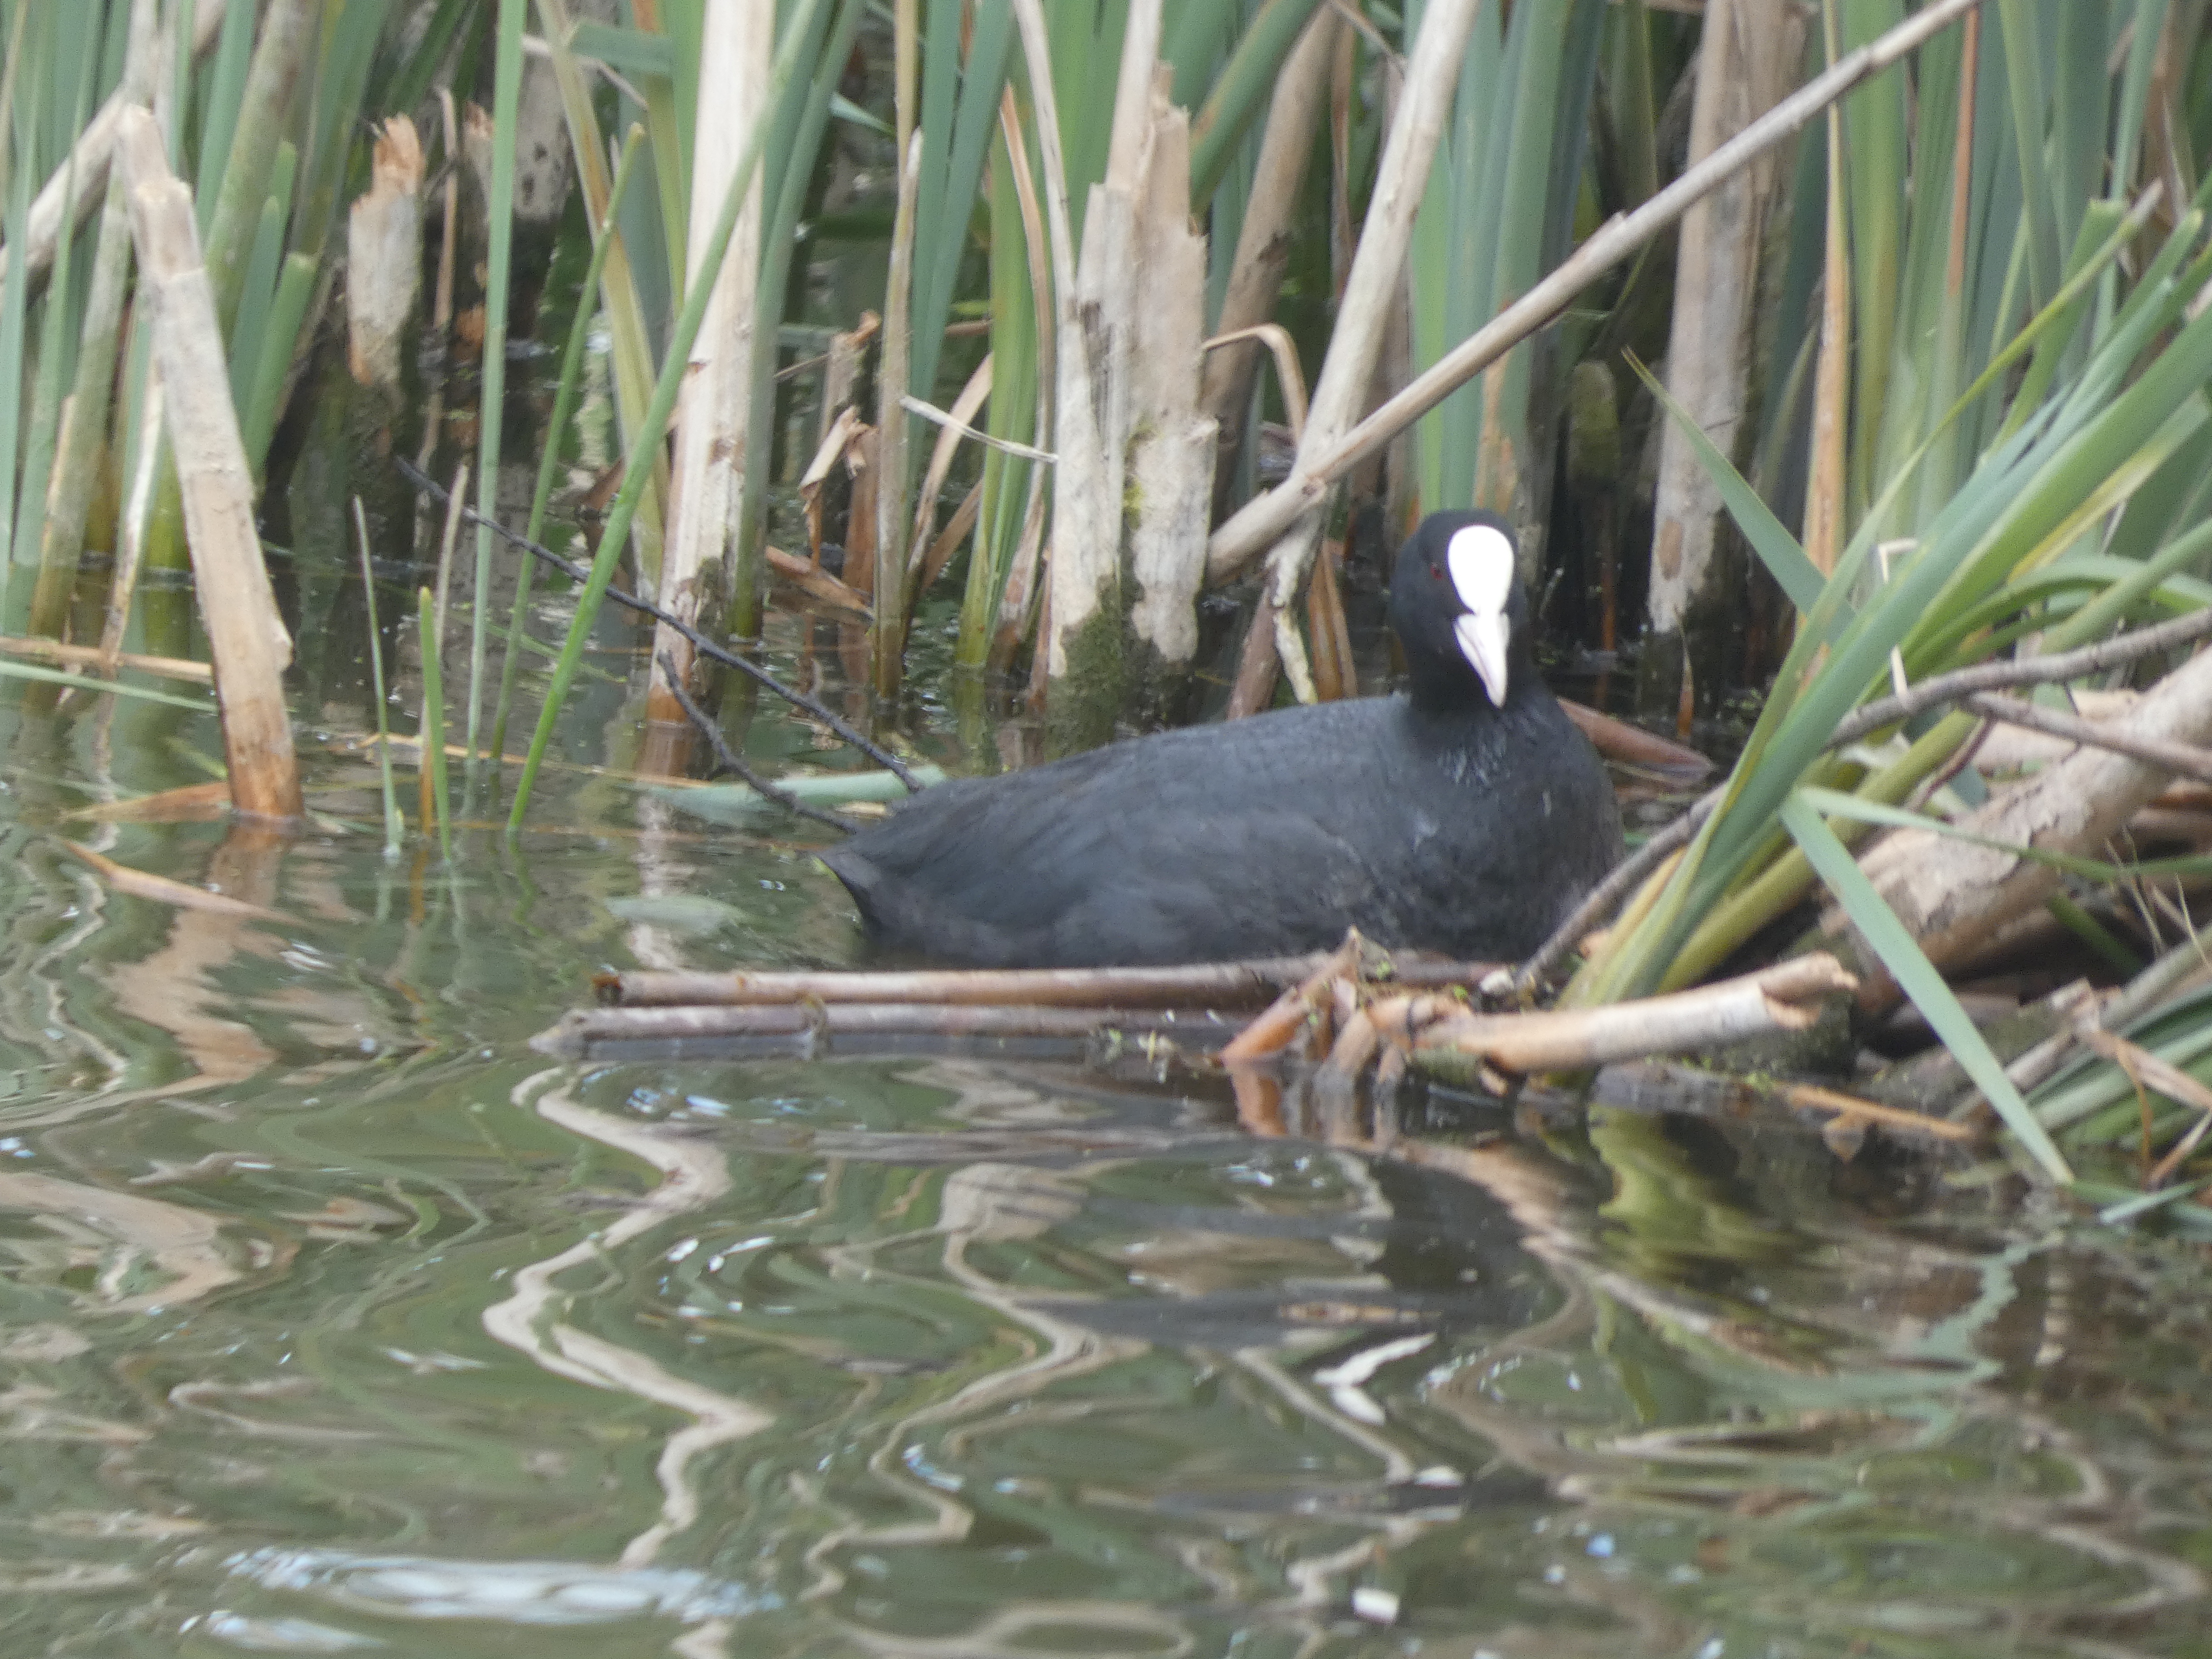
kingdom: Animalia
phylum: Chordata
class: Aves
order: Gruiformes
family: Rallidae
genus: Fulica
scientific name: Fulica atra
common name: Blishøne
